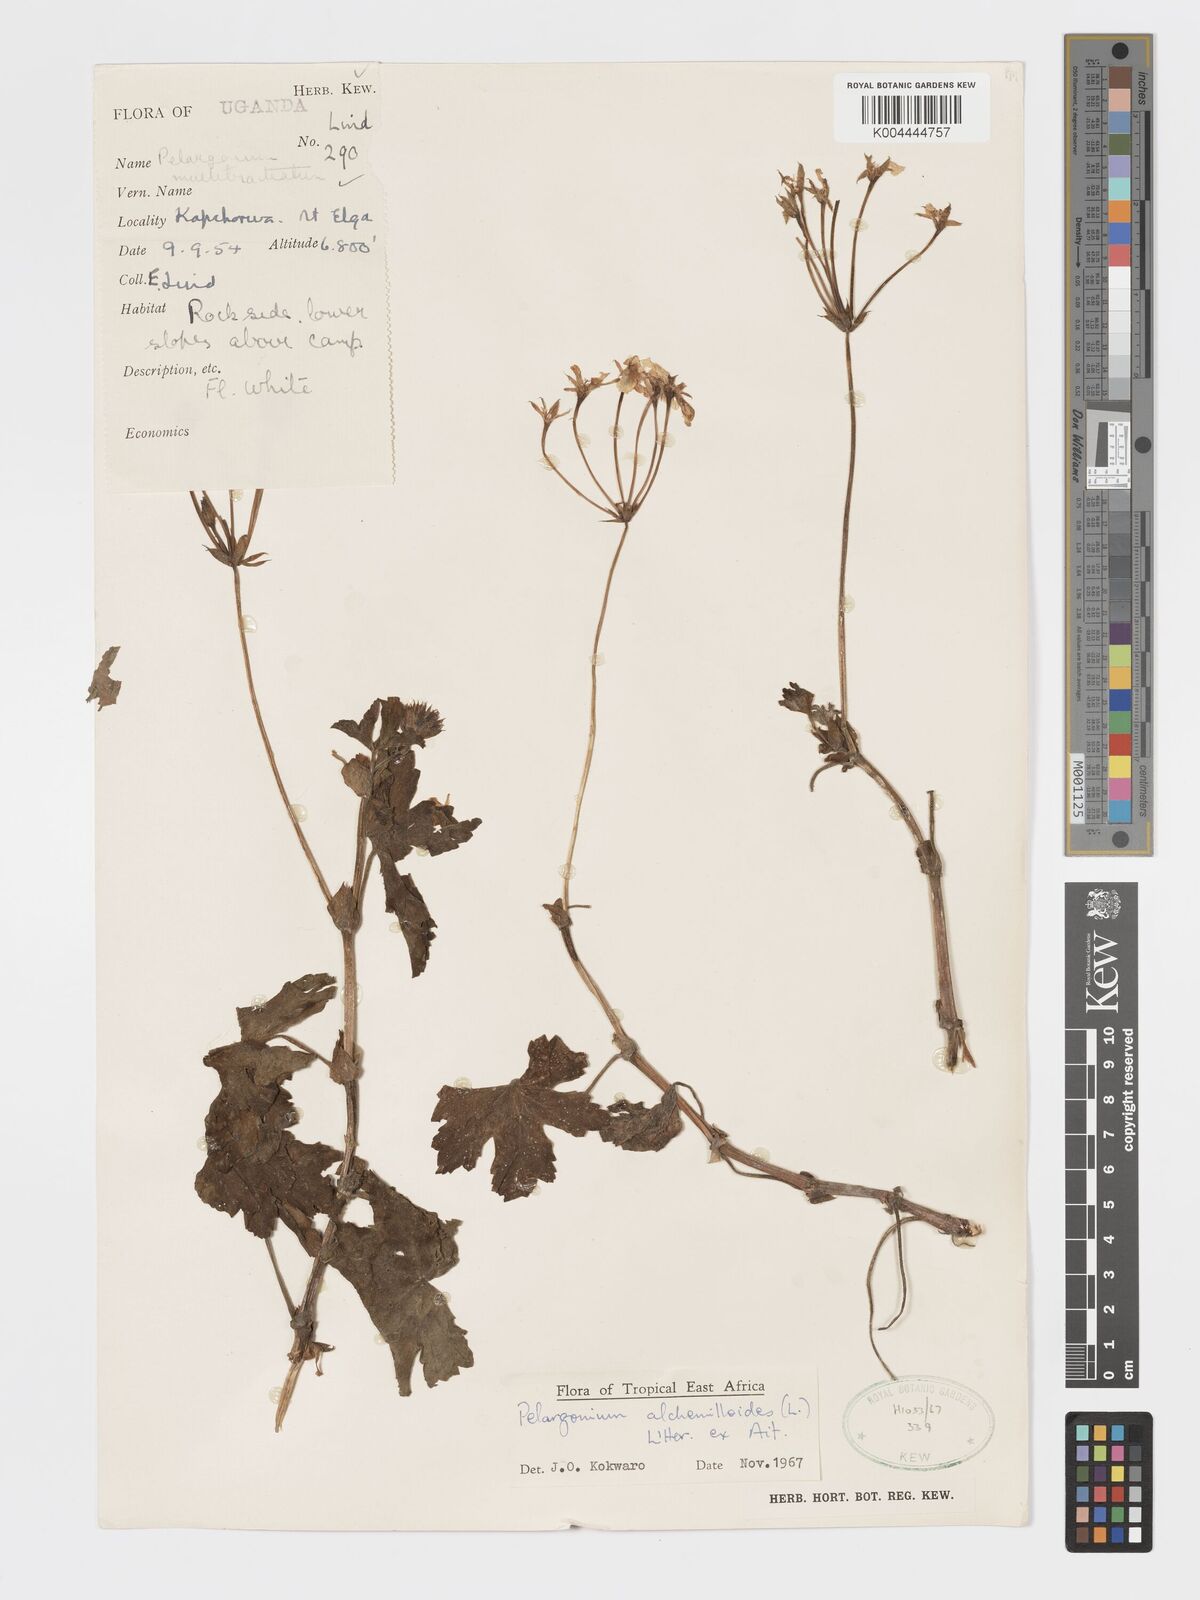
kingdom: Plantae
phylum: Tracheophyta
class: Magnoliopsida
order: Geraniales
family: Geraniaceae
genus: Pelargonium
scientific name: Pelargonium alchemilloides
